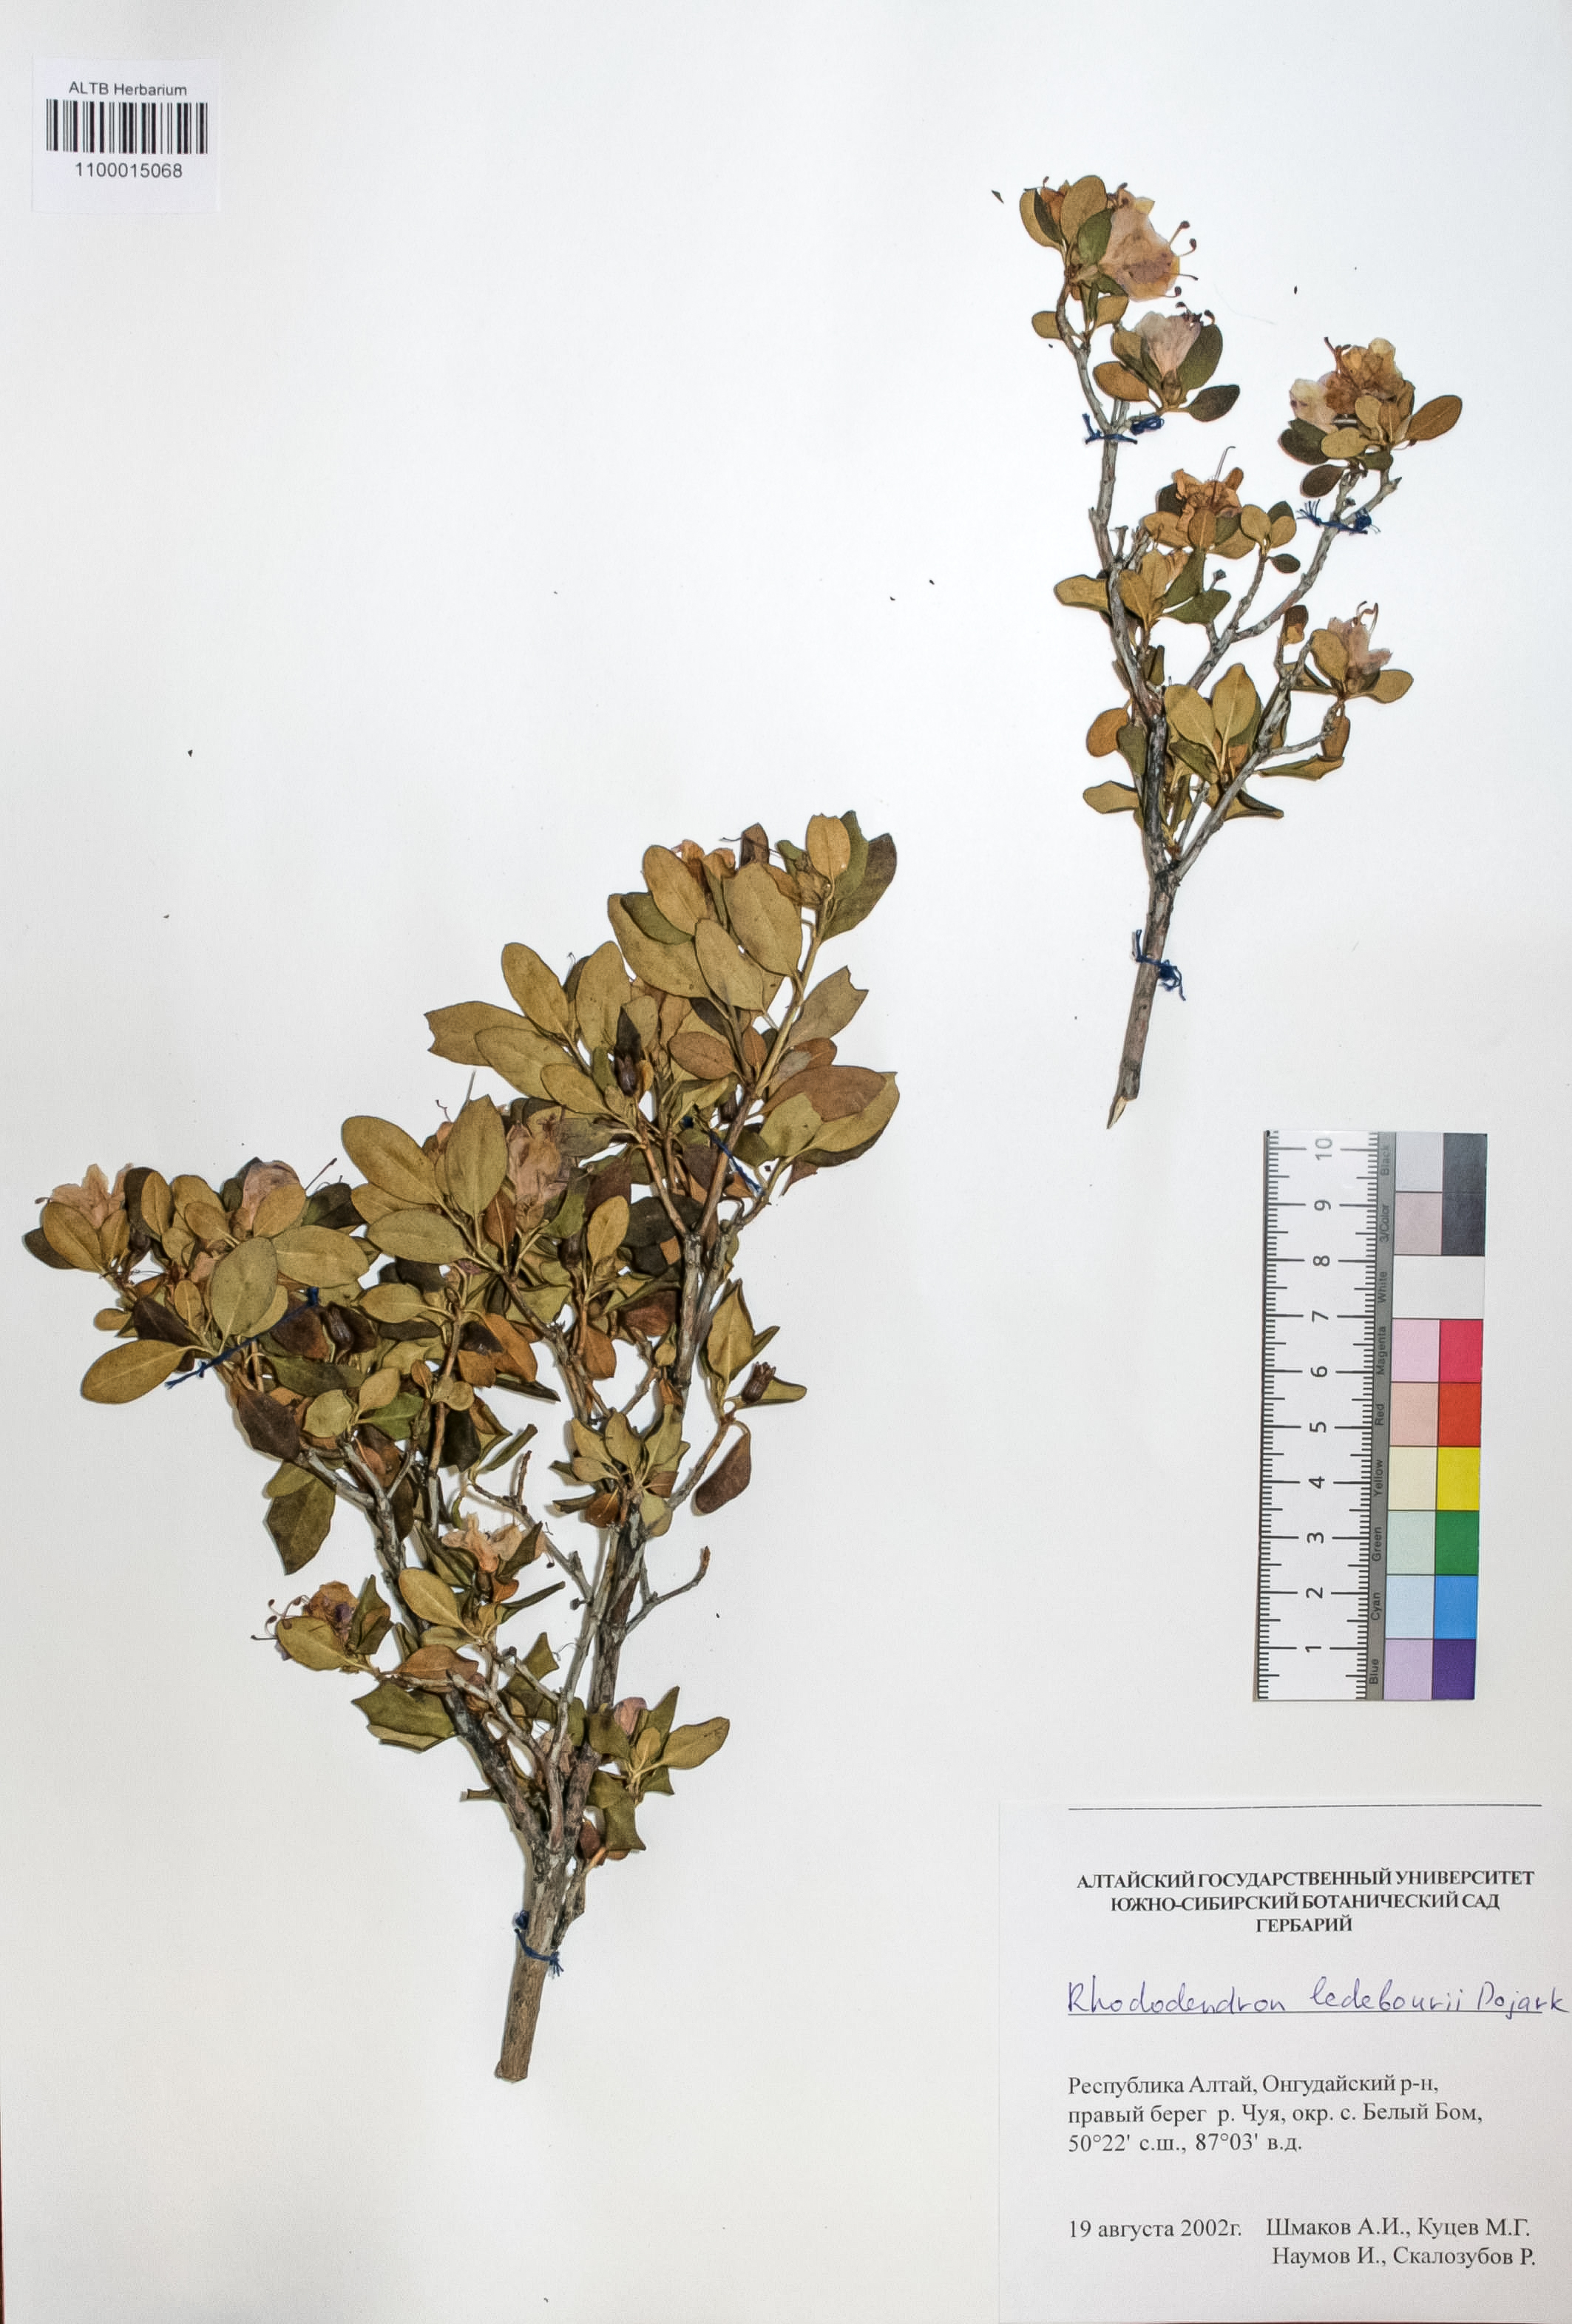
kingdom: Plantae
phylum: Tracheophyta
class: Magnoliopsida
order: Ericales
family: Ericaceae
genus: Rhododendron
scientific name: Rhododendron dauricum
